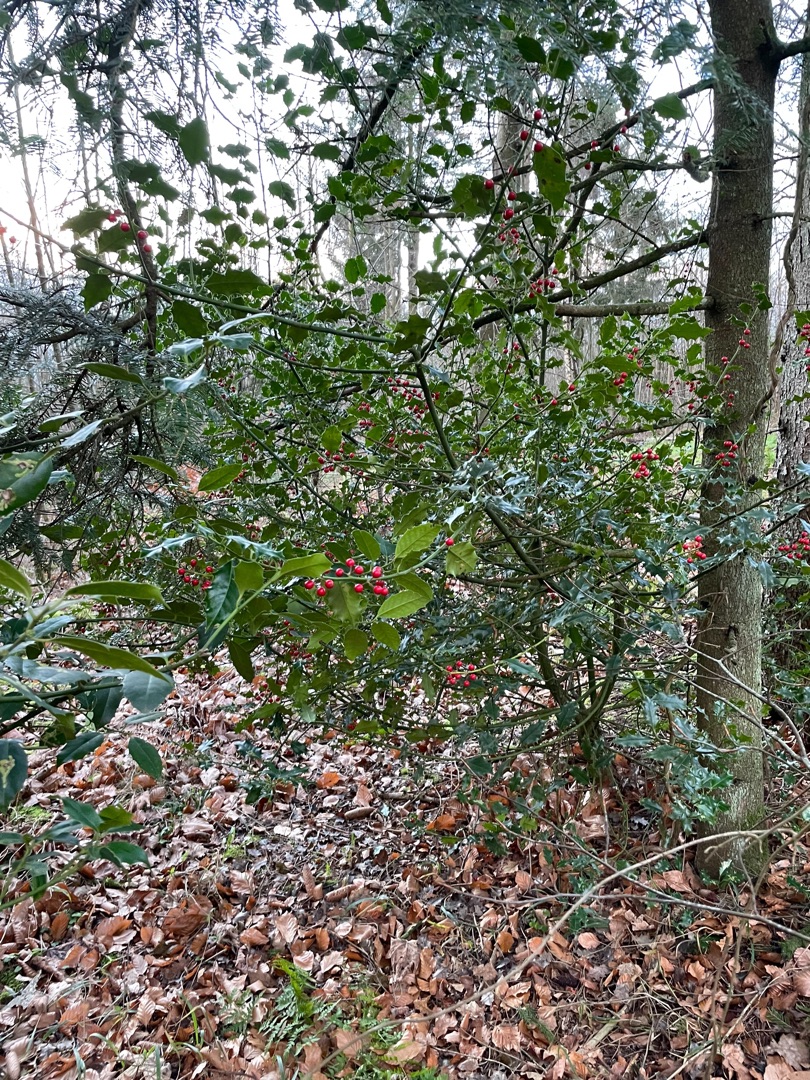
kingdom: Plantae
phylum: Tracheophyta
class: Magnoliopsida
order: Aquifoliales
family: Aquifoliaceae
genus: Ilex
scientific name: Ilex aquifolium
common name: Kristtorn
